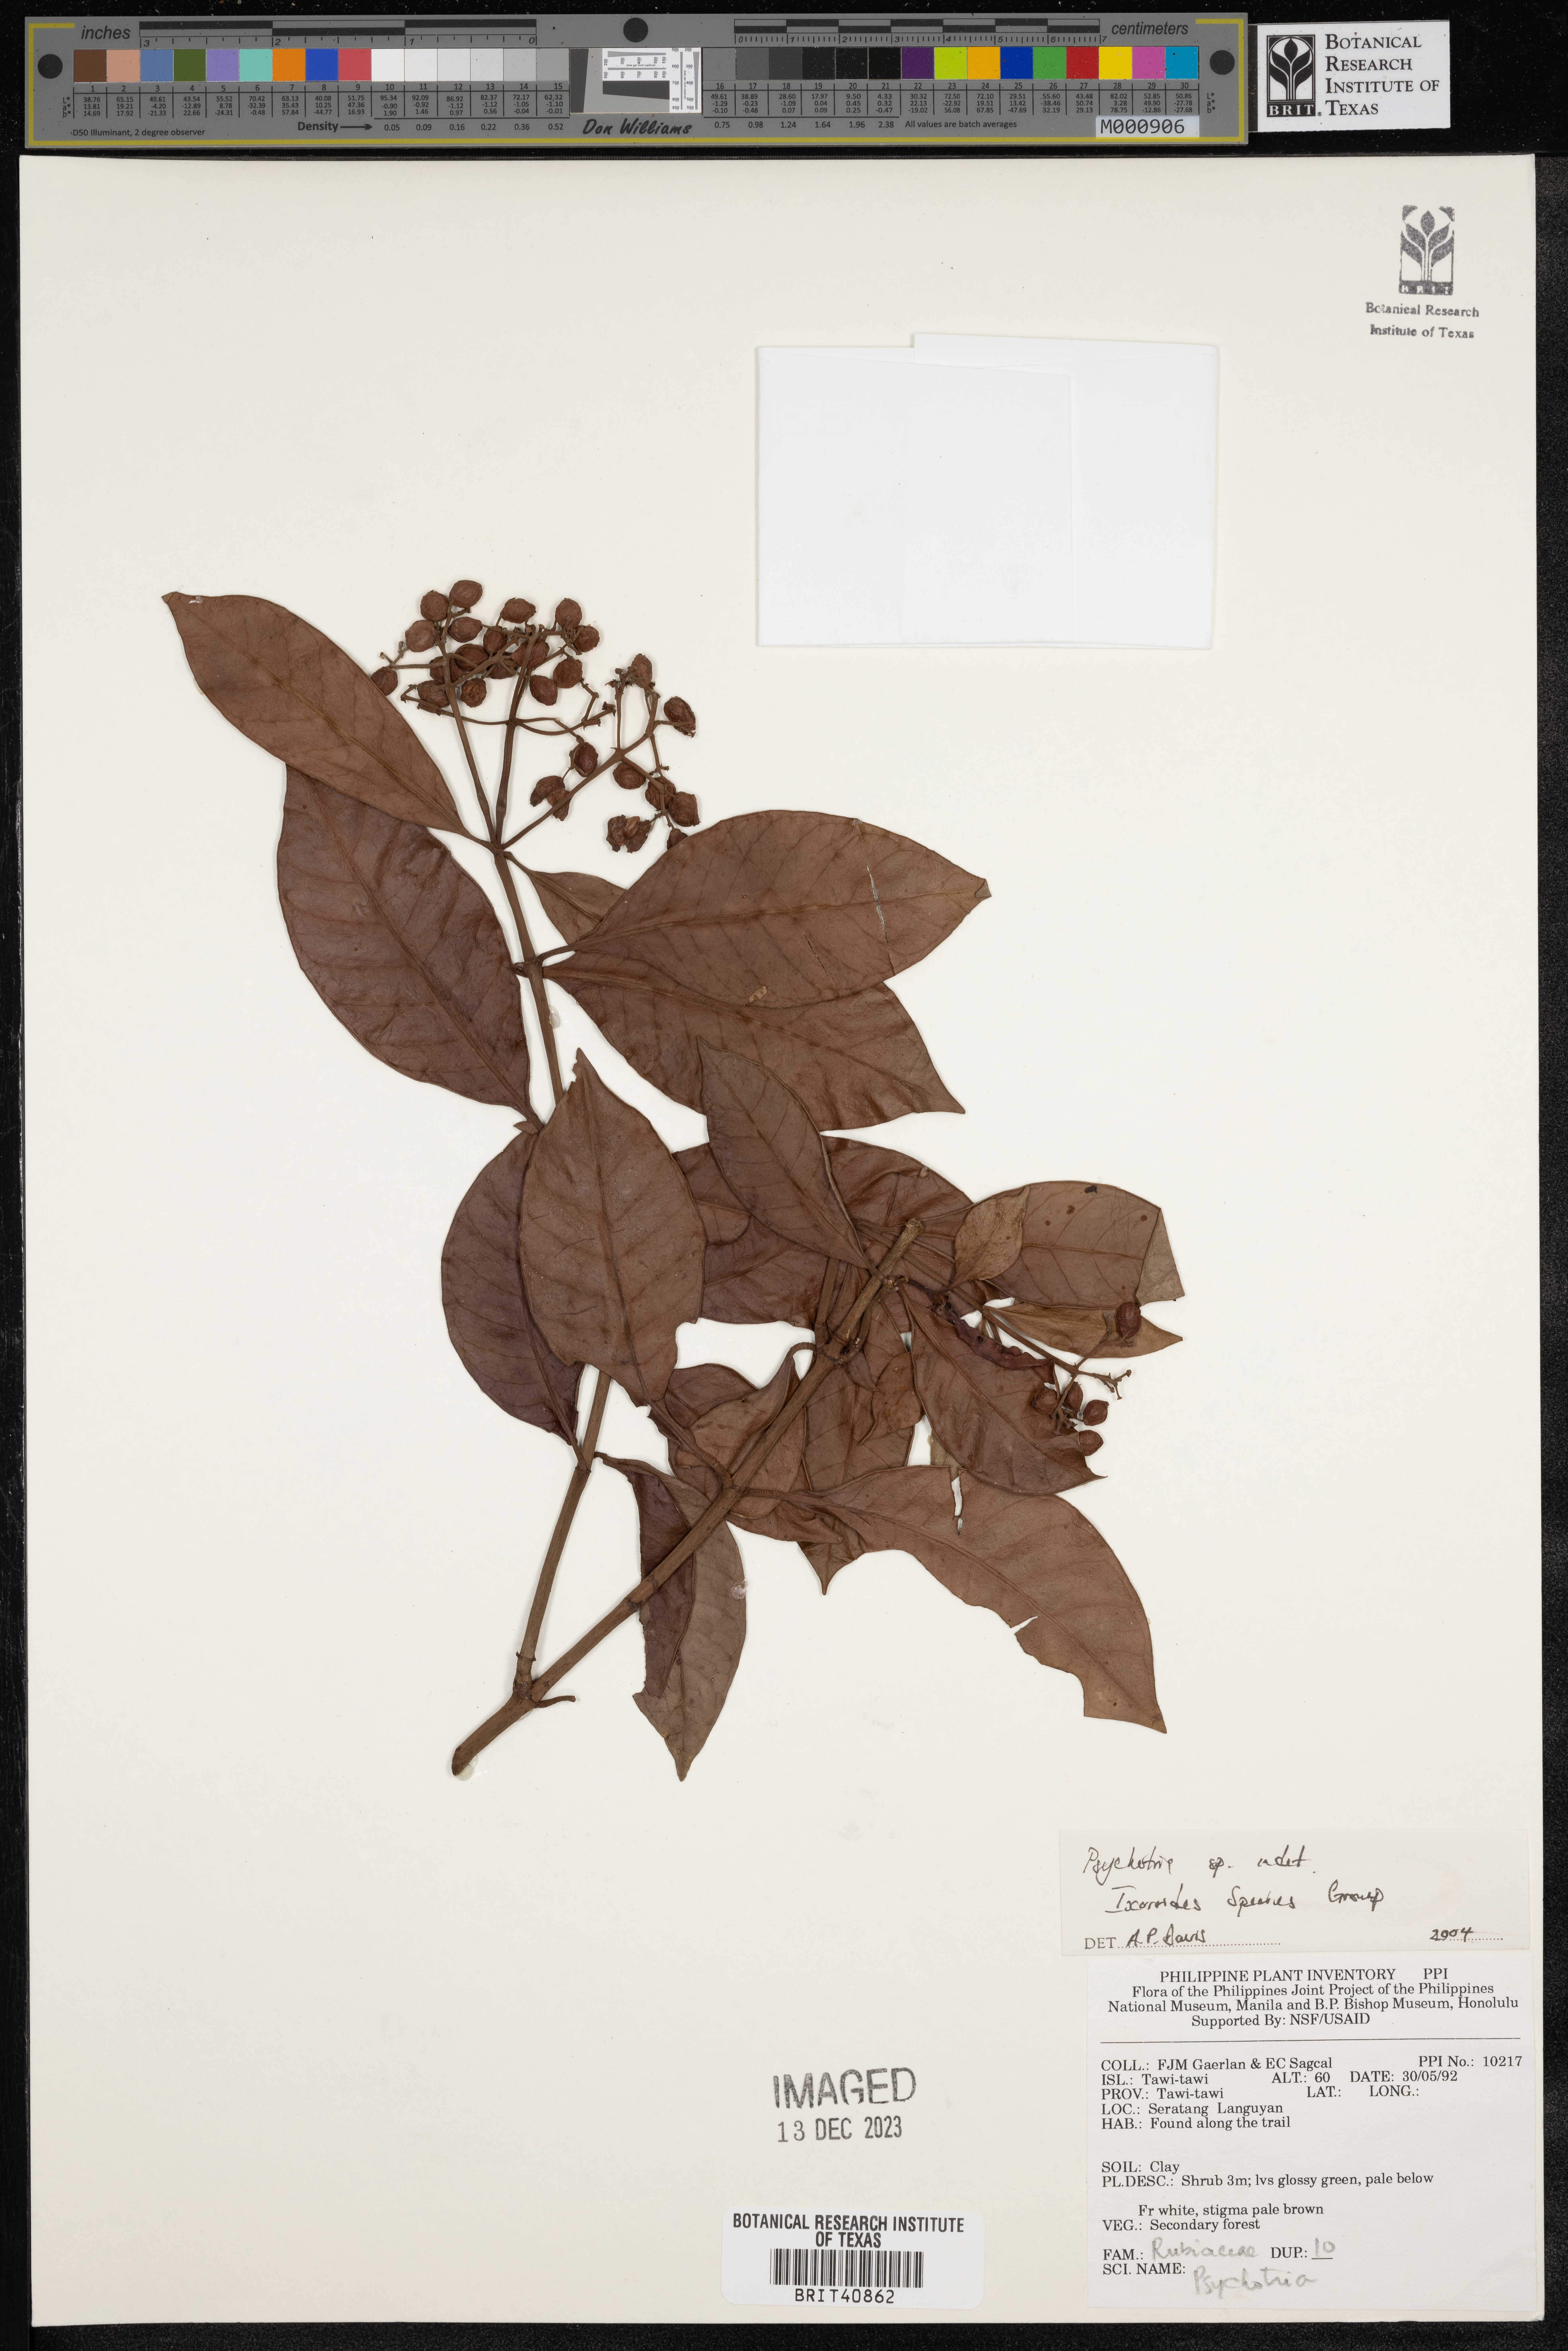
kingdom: Plantae
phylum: Tracheophyta
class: Magnoliopsida
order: Gentianales
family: Rubiaceae
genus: Psychotria
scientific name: Psychotria
